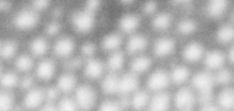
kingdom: Animalia
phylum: Chordata
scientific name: Chordata
